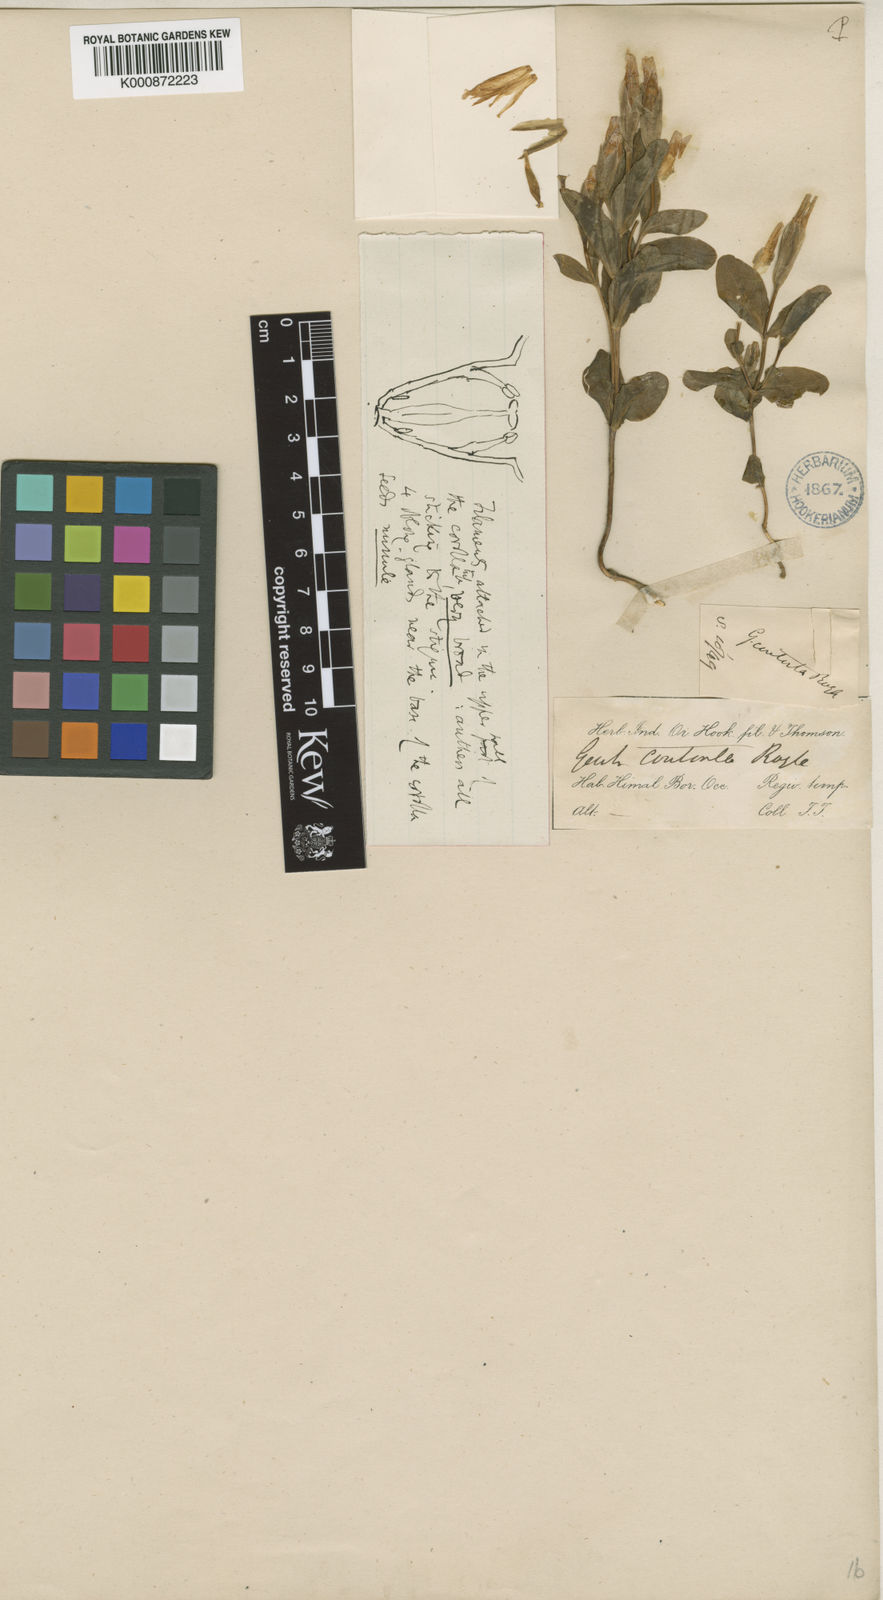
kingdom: Plantae
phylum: Tracheophyta
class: Magnoliopsida
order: Gentianales
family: Gentianaceae
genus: Gentiana
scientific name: Gentiana
